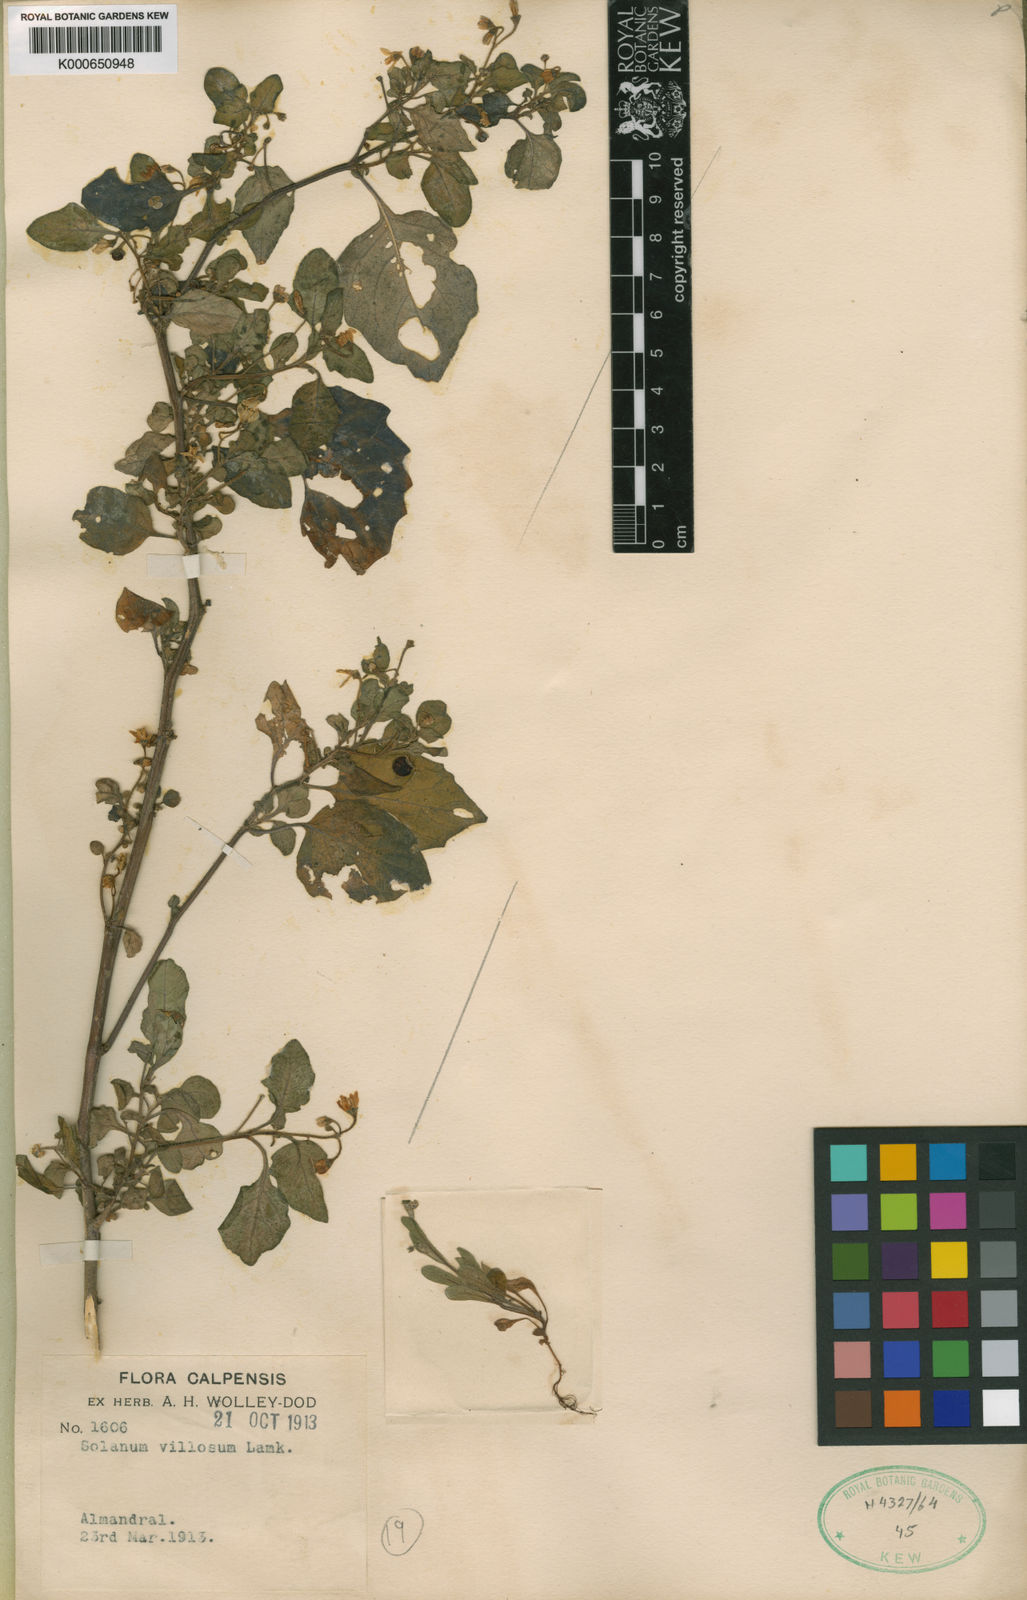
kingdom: Plantae
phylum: Tracheophyta
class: Magnoliopsida
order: Solanales
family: Solanaceae
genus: Solanum
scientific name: Solanum villosum
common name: Red nightshade
